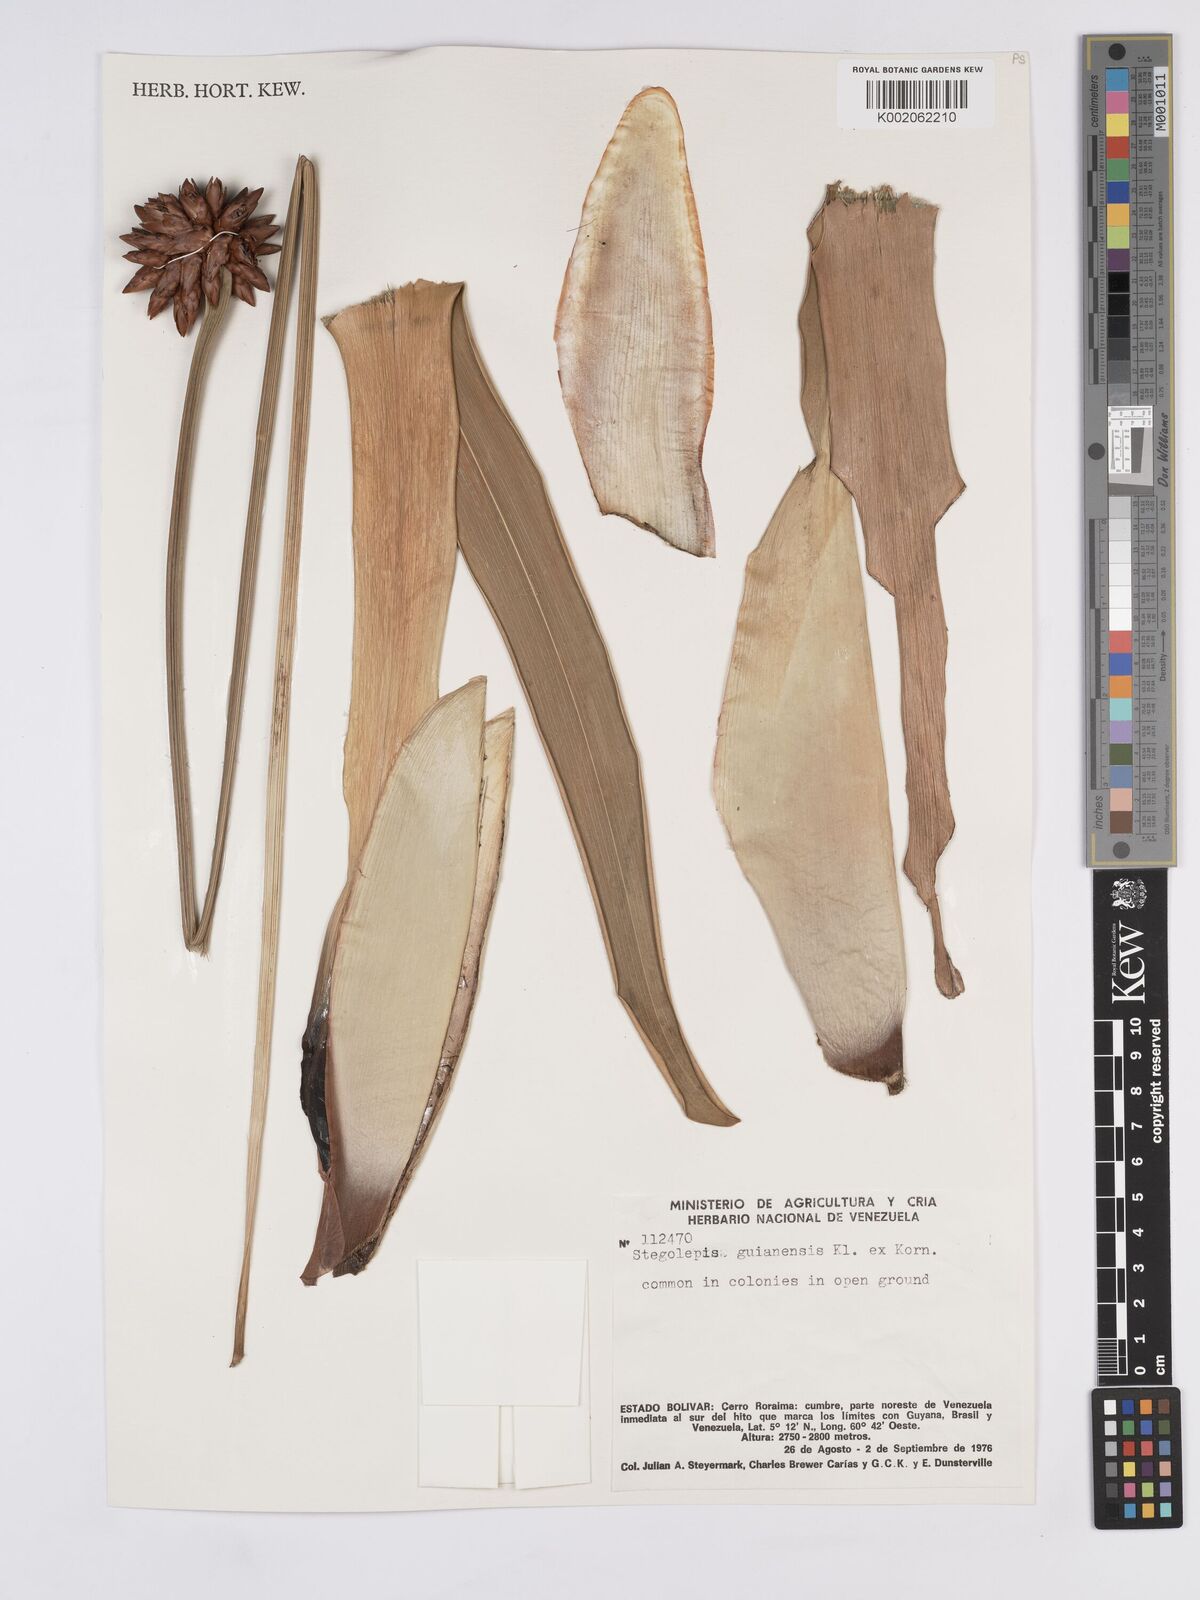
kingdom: Plantae
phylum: Tracheophyta
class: Liliopsida
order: Poales
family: Rapateaceae
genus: Stegolepis
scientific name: Stegolepis guianensis
